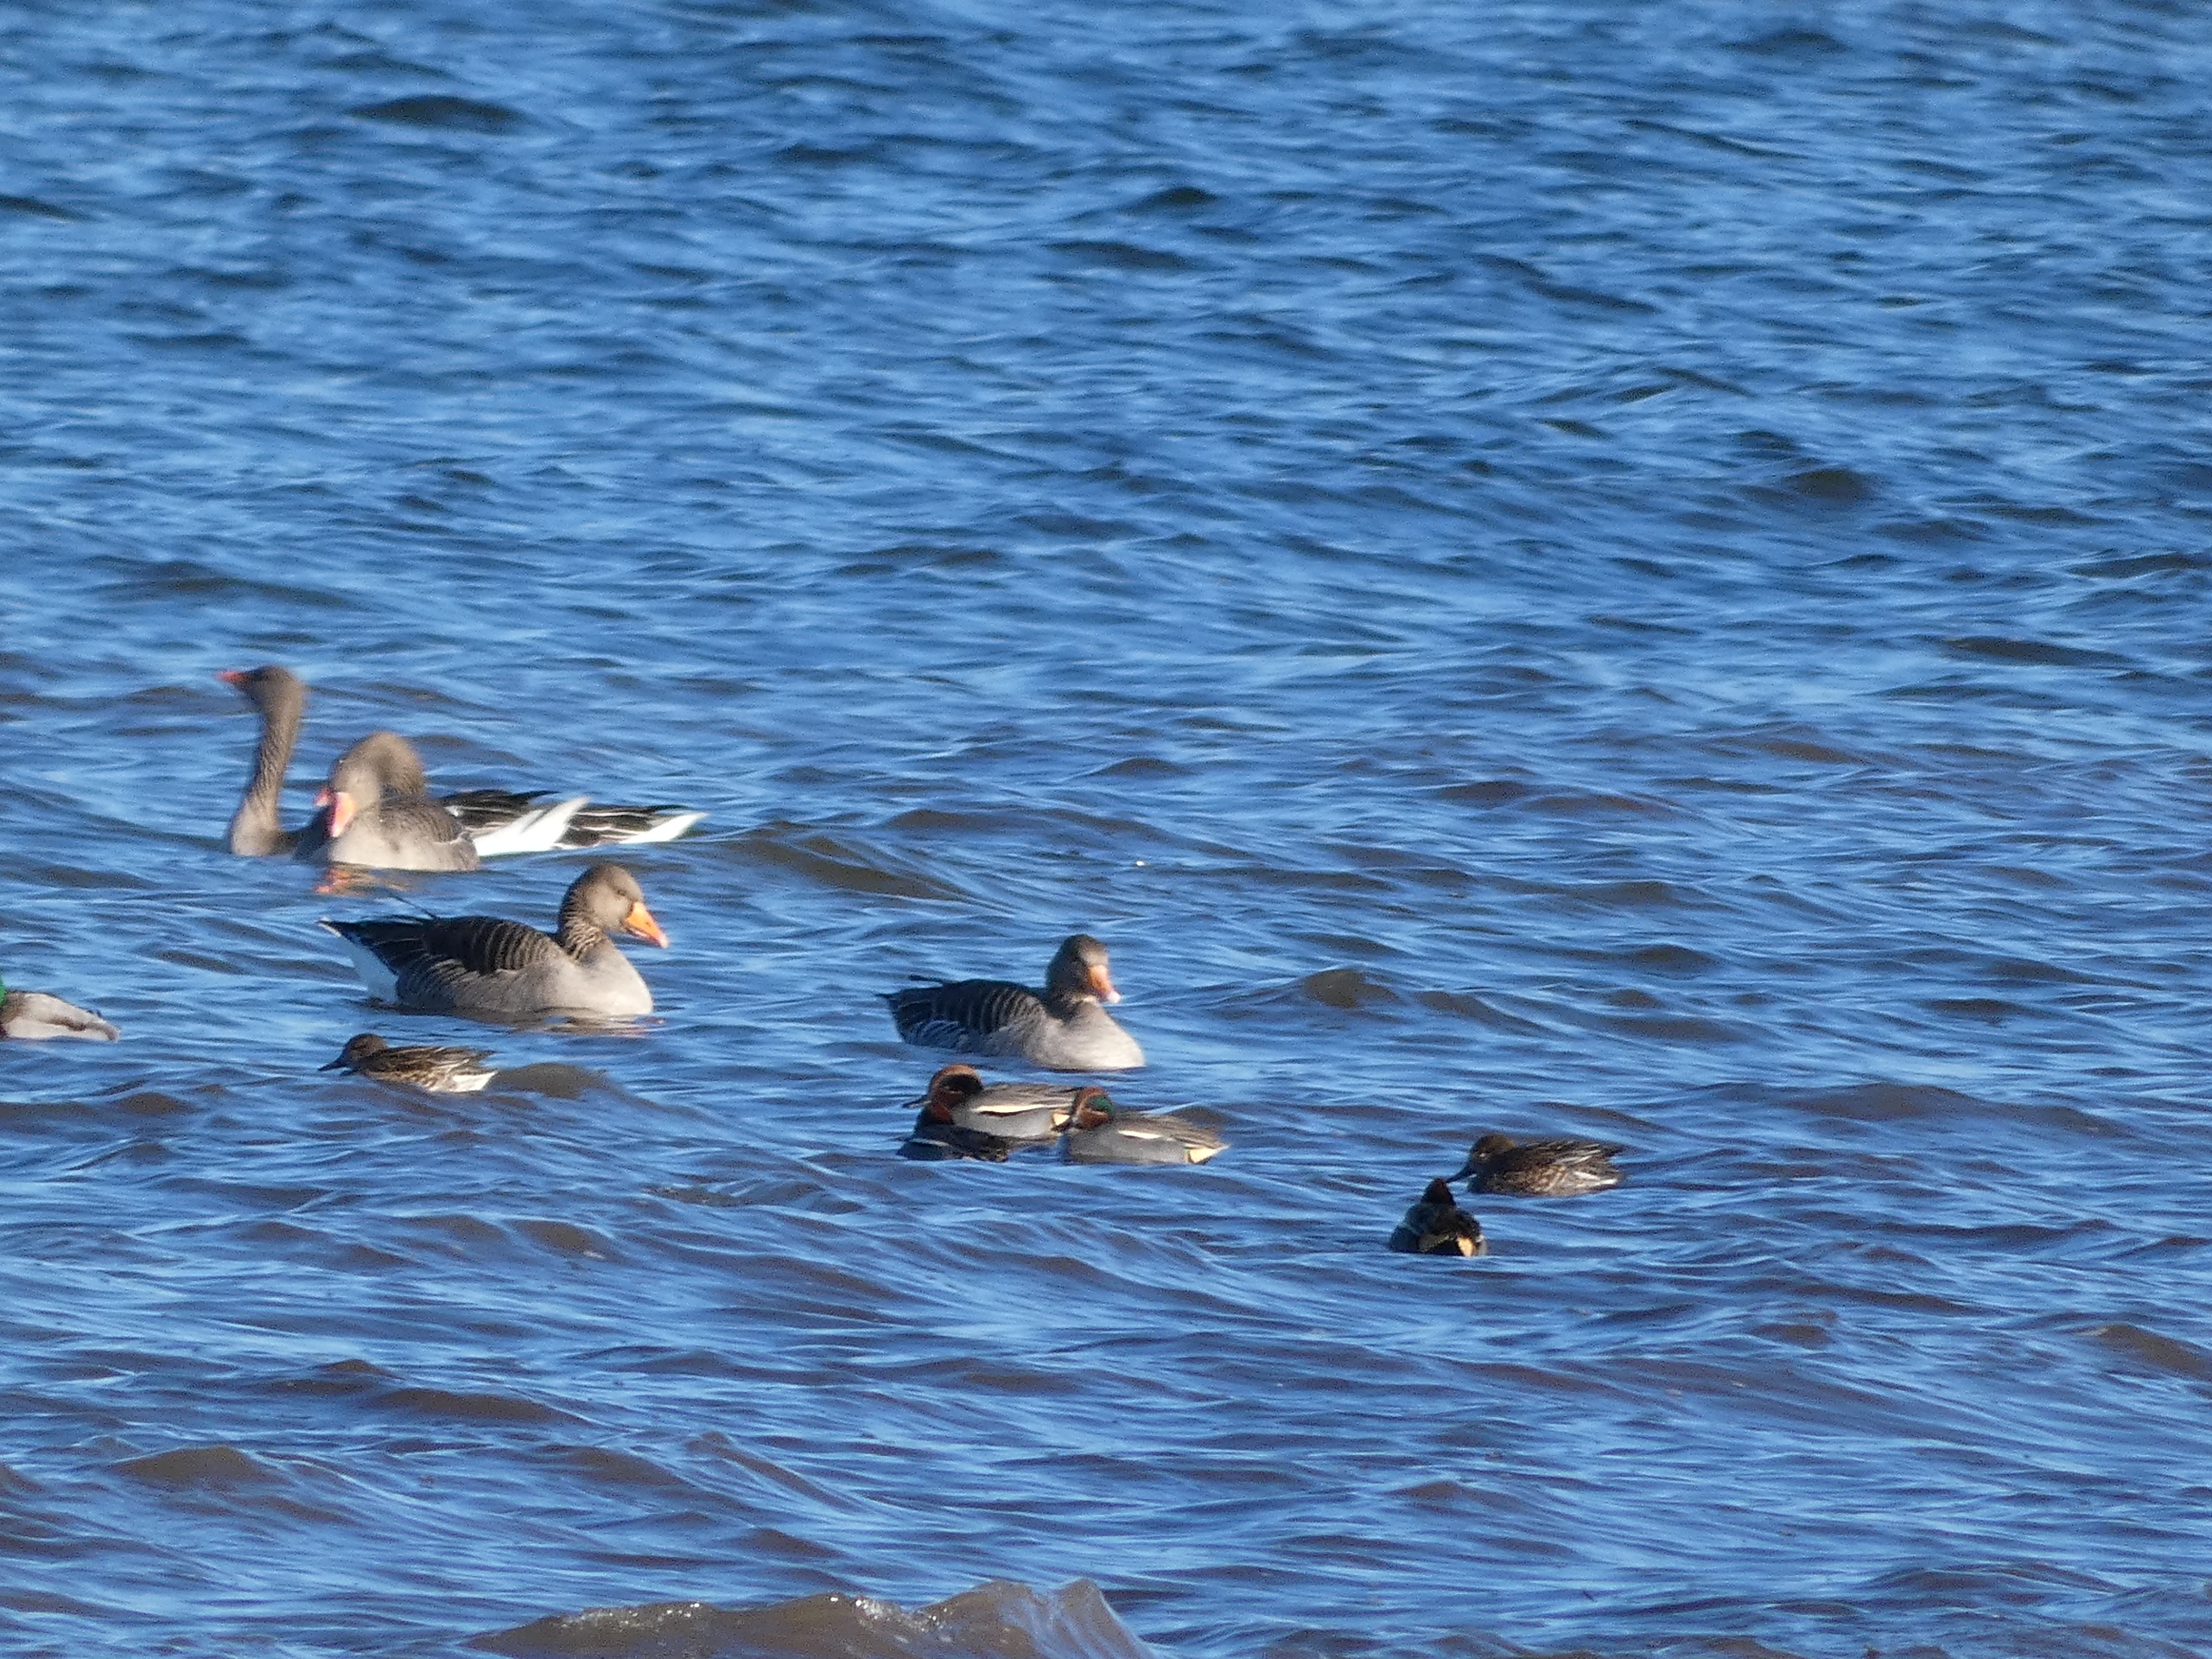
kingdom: Animalia
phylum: Chordata
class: Aves
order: Anseriformes
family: Anatidae
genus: Anas
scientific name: Anas crecca
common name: Krikand
